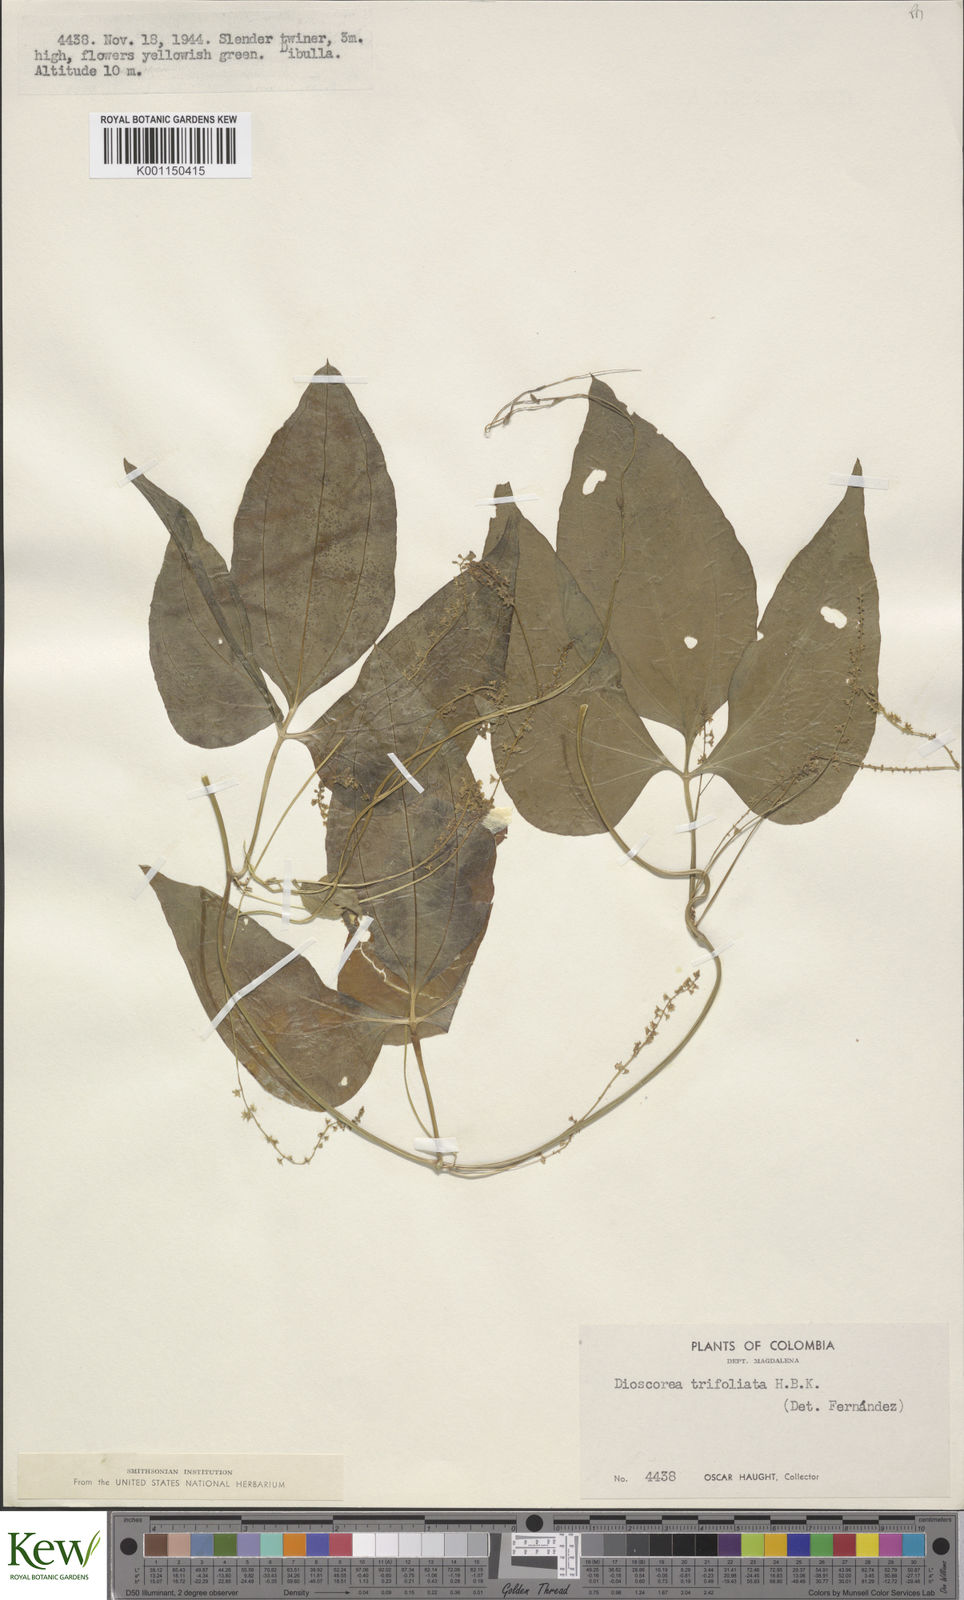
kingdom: Plantae
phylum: Tracheophyta
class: Liliopsida
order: Dioscoreales
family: Dioscoreaceae
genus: Dioscorea
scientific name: Dioscorea trifoliata
